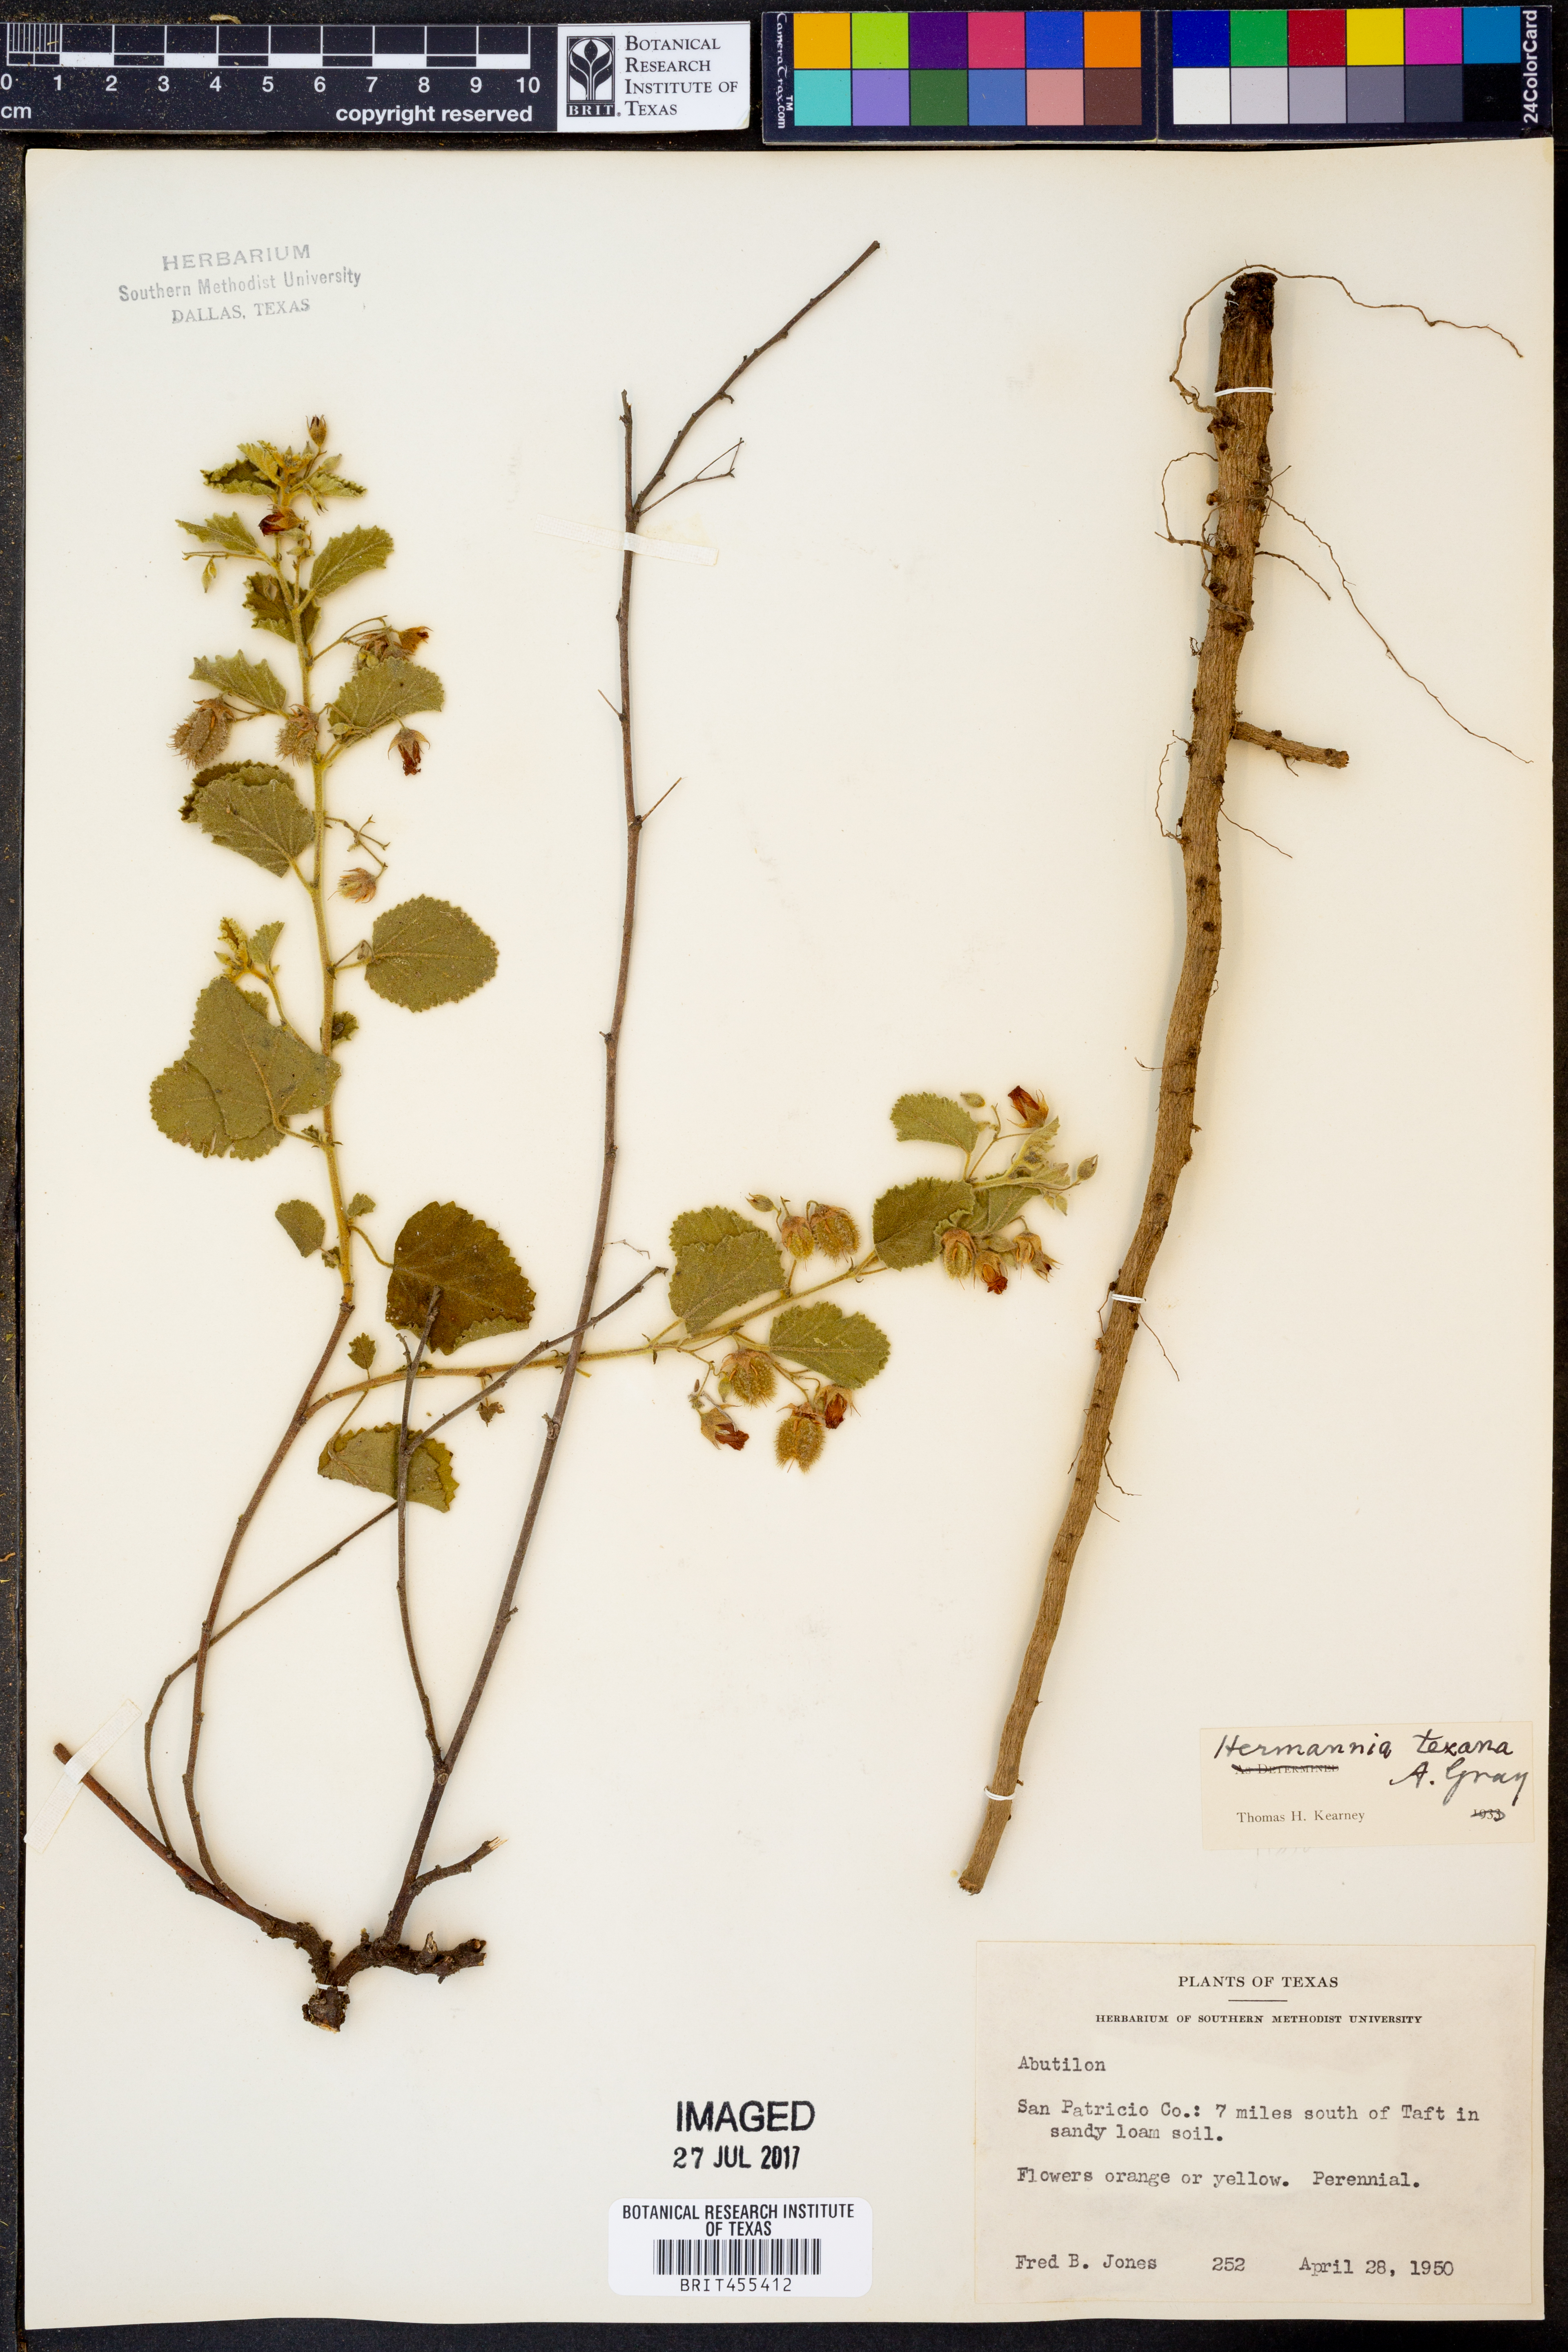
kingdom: Plantae
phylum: Tracheophyta
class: Magnoliopsida
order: Malvales
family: Malvaceae
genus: Hermannia
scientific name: Hermannia texana
